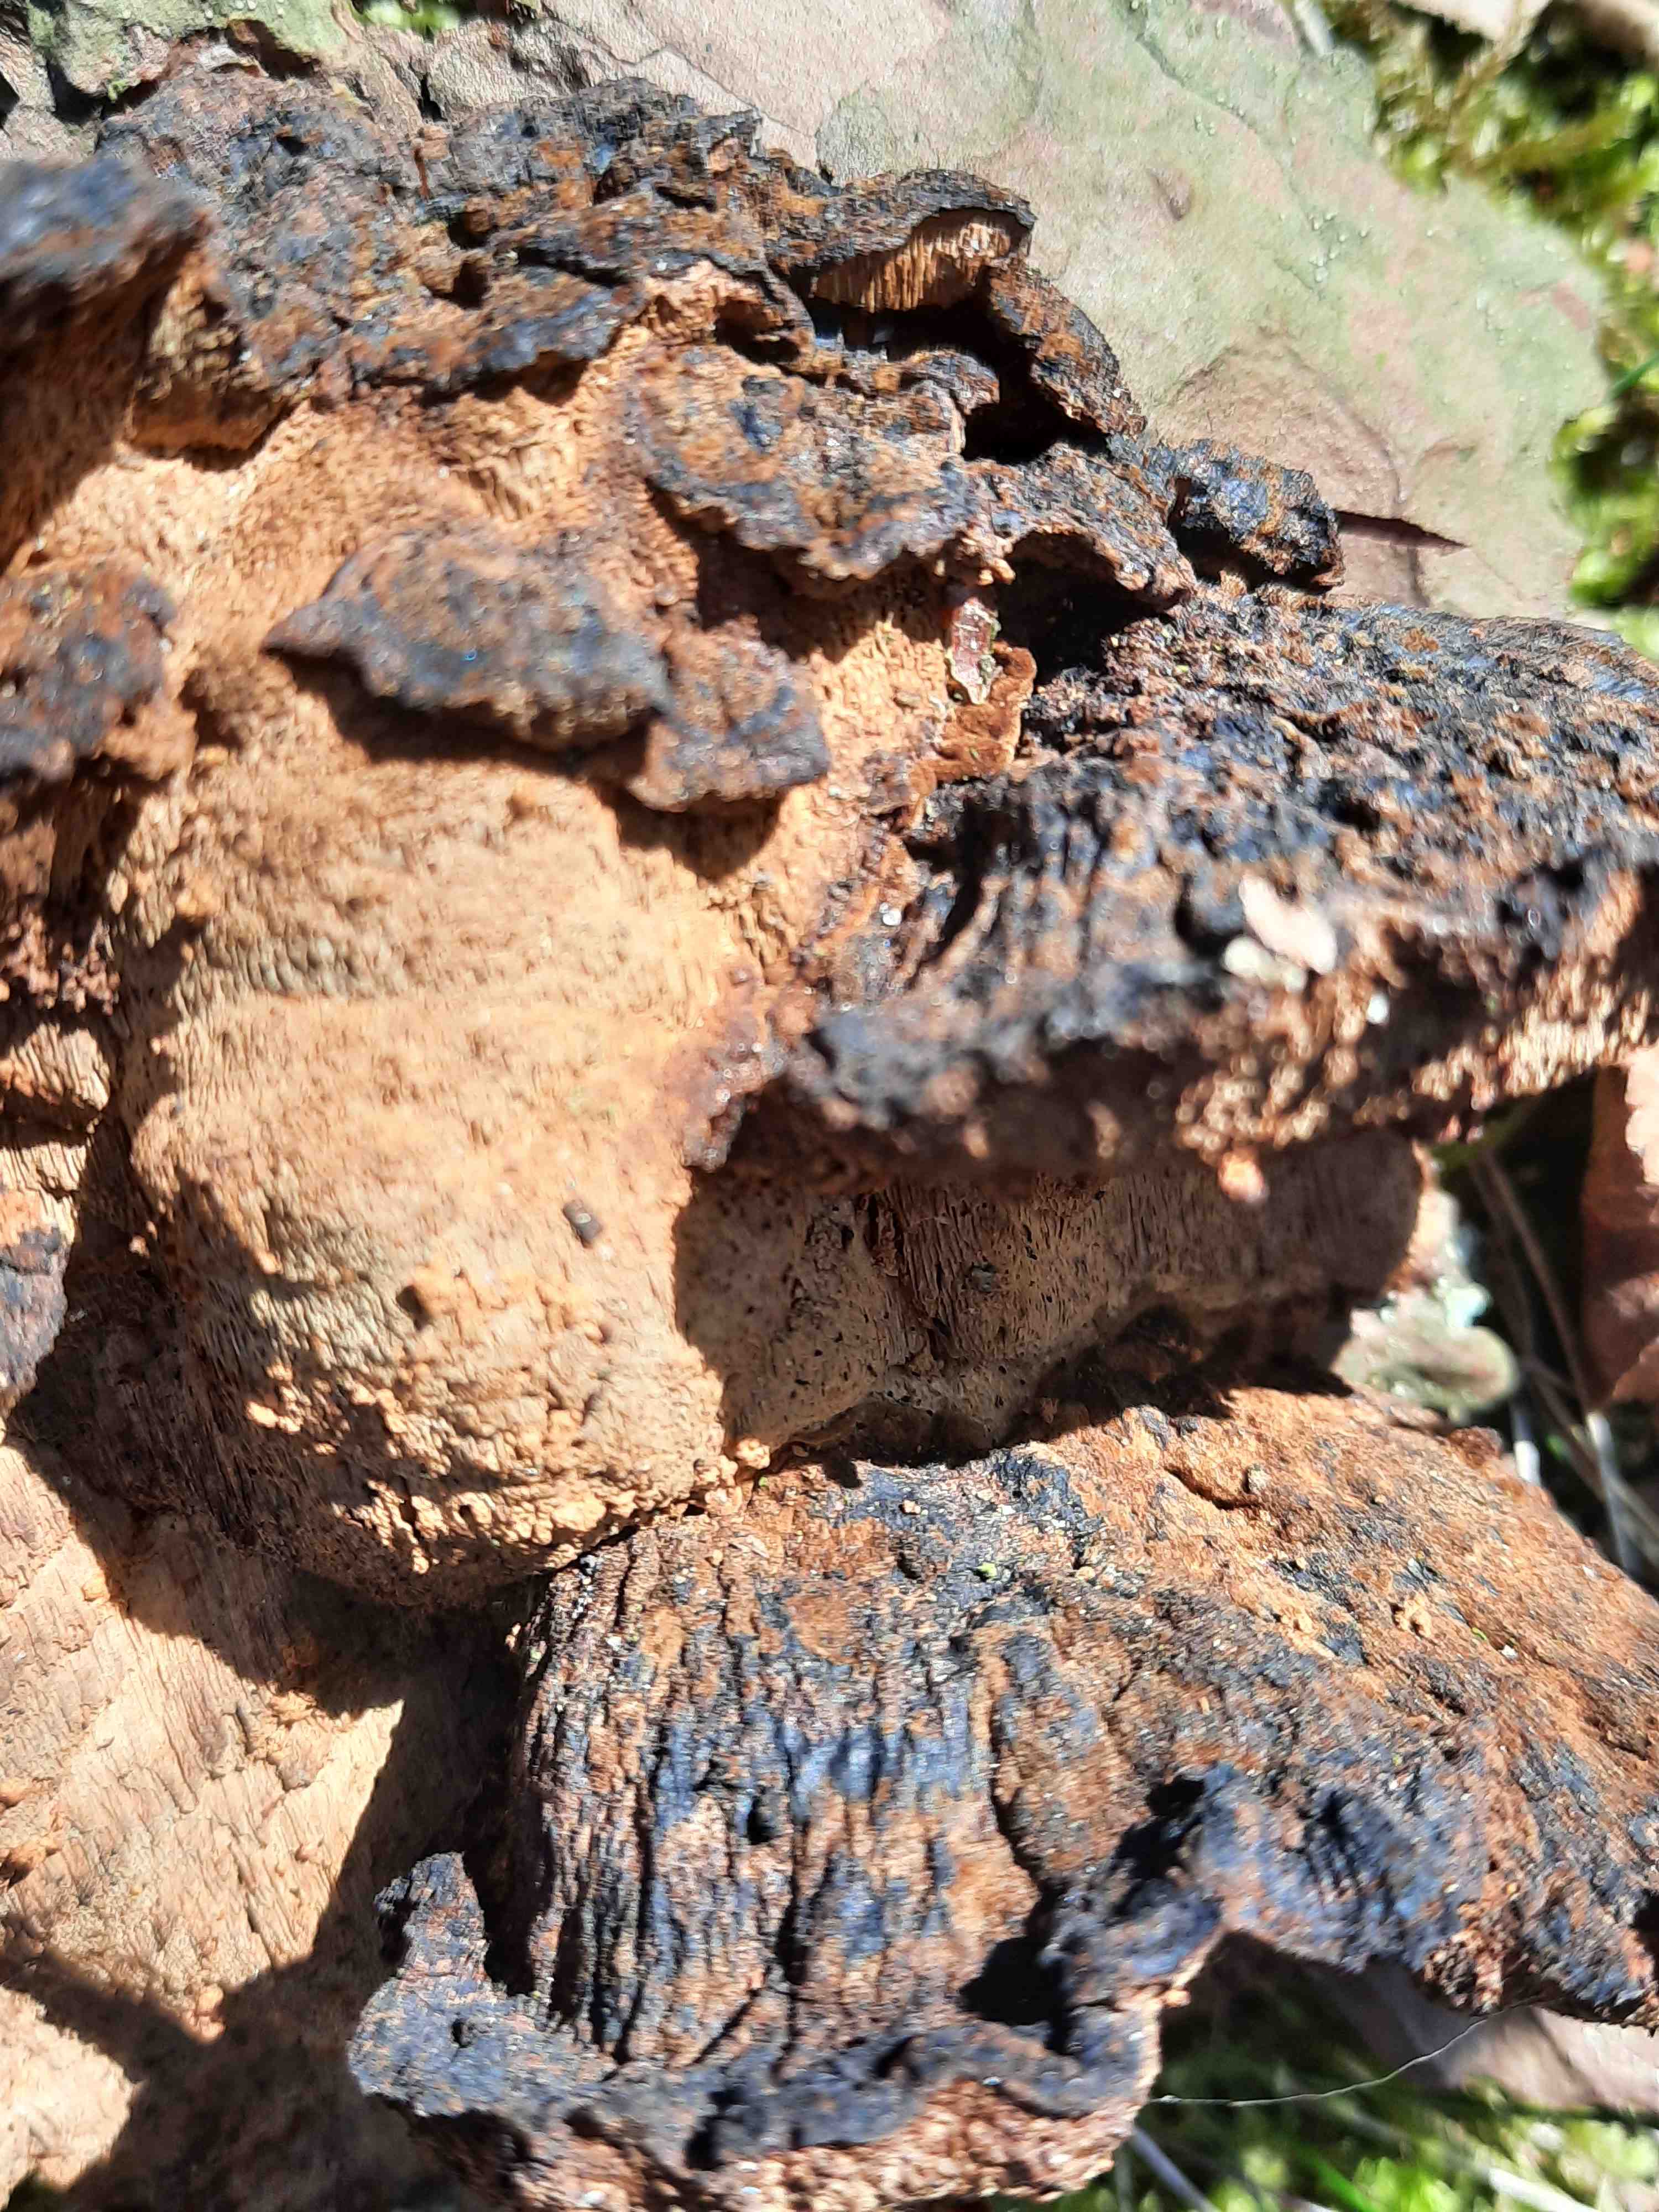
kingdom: Fungi
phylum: Basidiomycota
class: Agaricomycetes
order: Polyporales
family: Ischnodermataceae
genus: Ischnoderma
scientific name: Ischnoderma benzoinum
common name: gran-tjæreporesvamp
